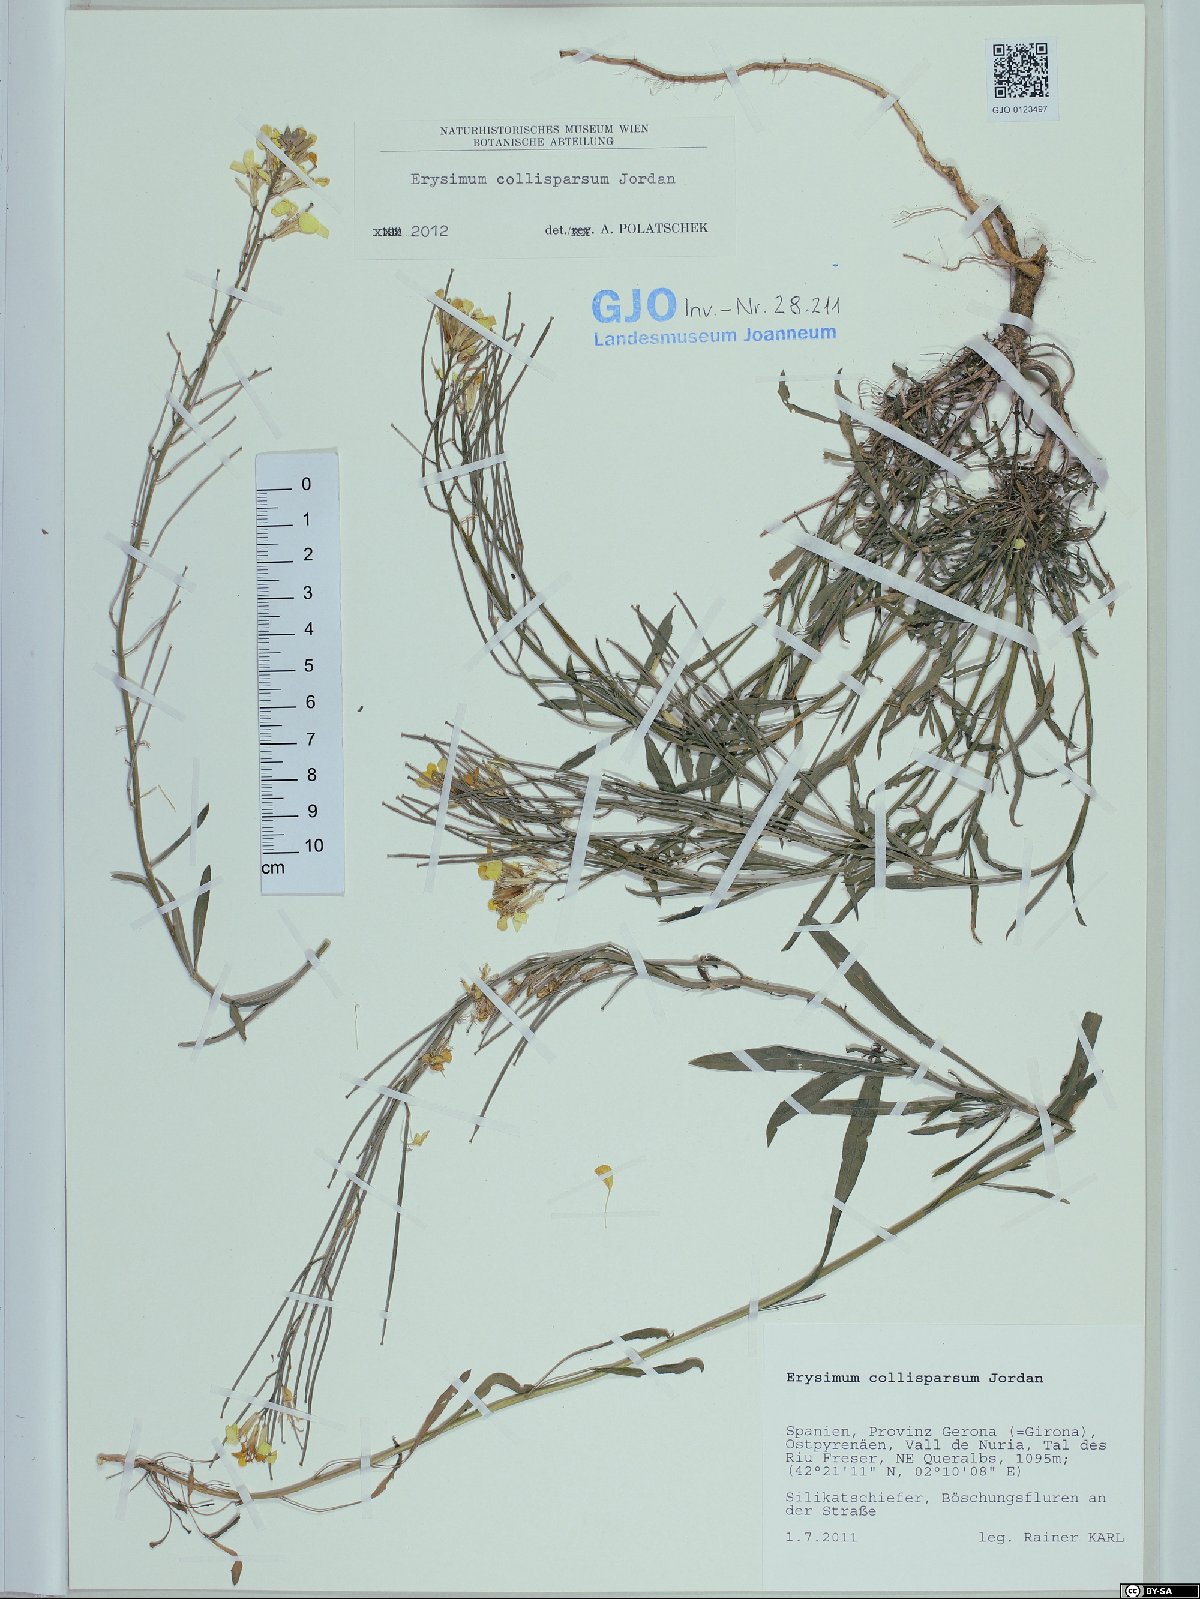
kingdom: Plantae
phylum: Tracheophyta
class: Magnoliopsida
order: Brassicales
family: Brassicaceae
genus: Erysimum
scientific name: Erysimum collisparsum
